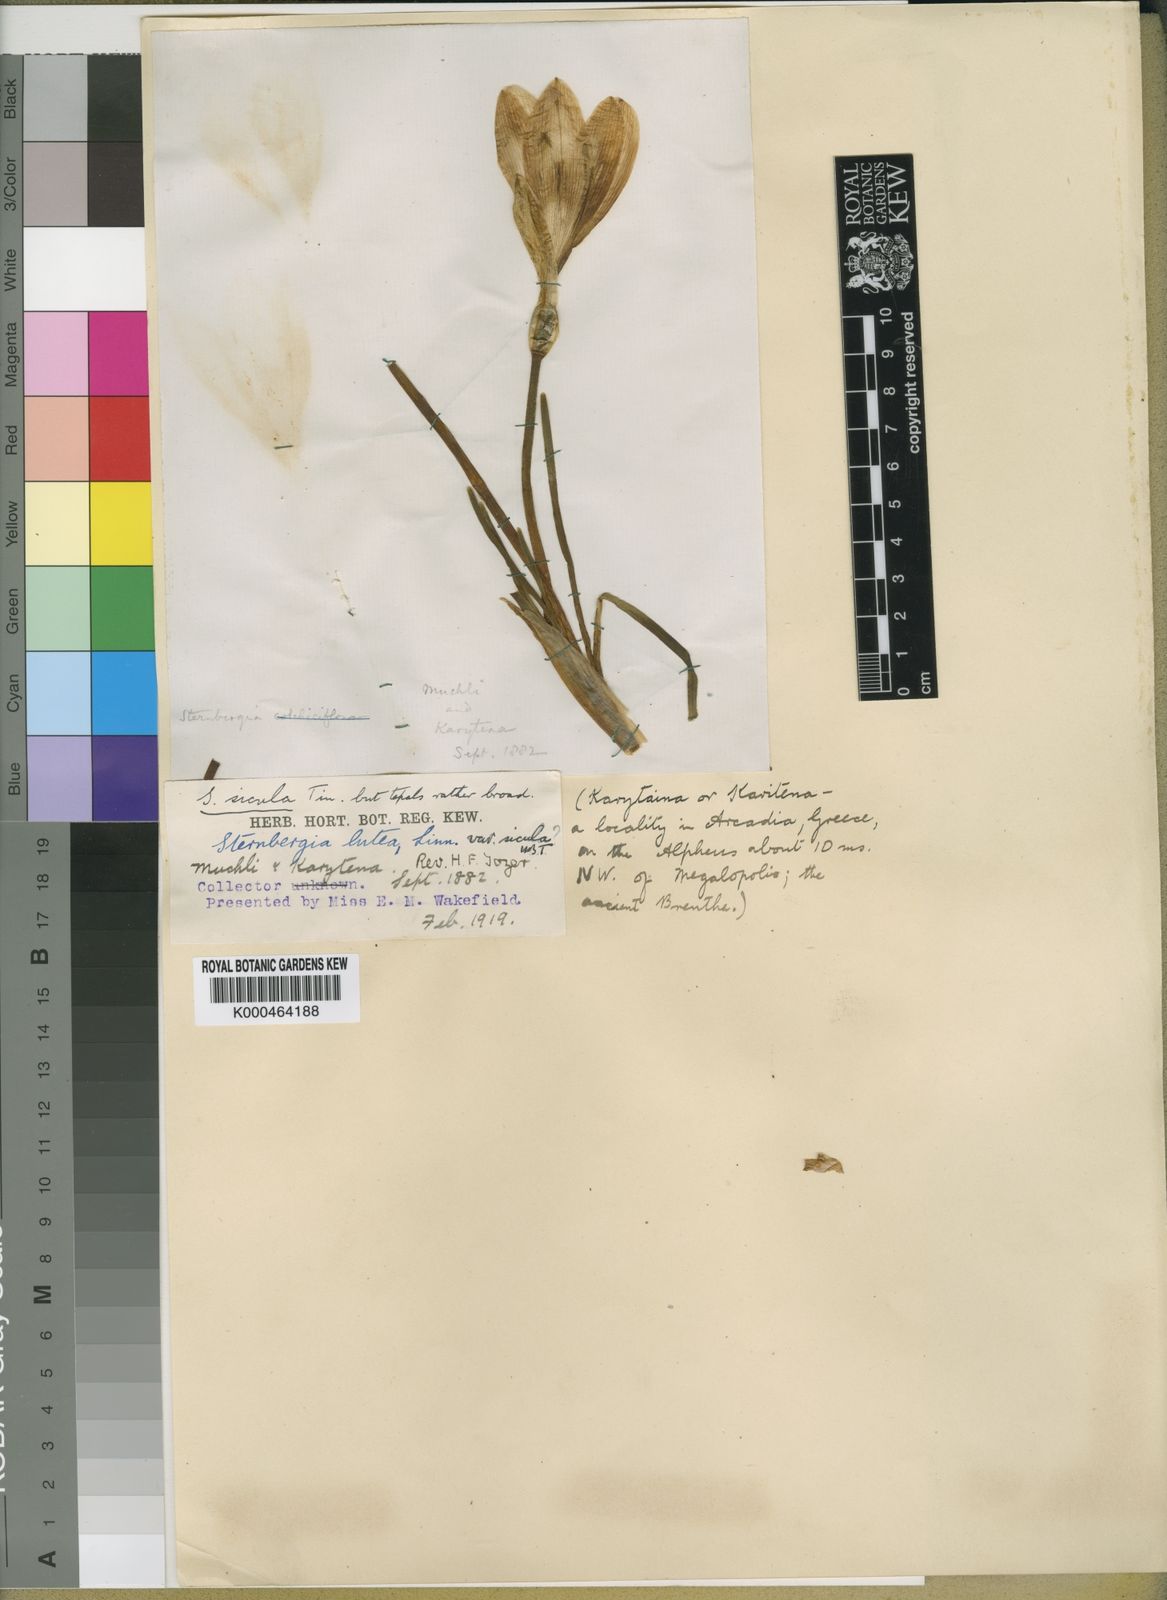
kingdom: Plantae
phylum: Tracheophyta
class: Liliopsida
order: Asparagales
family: Amaryllidaceae
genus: Sternbergia
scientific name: Sternbergia
